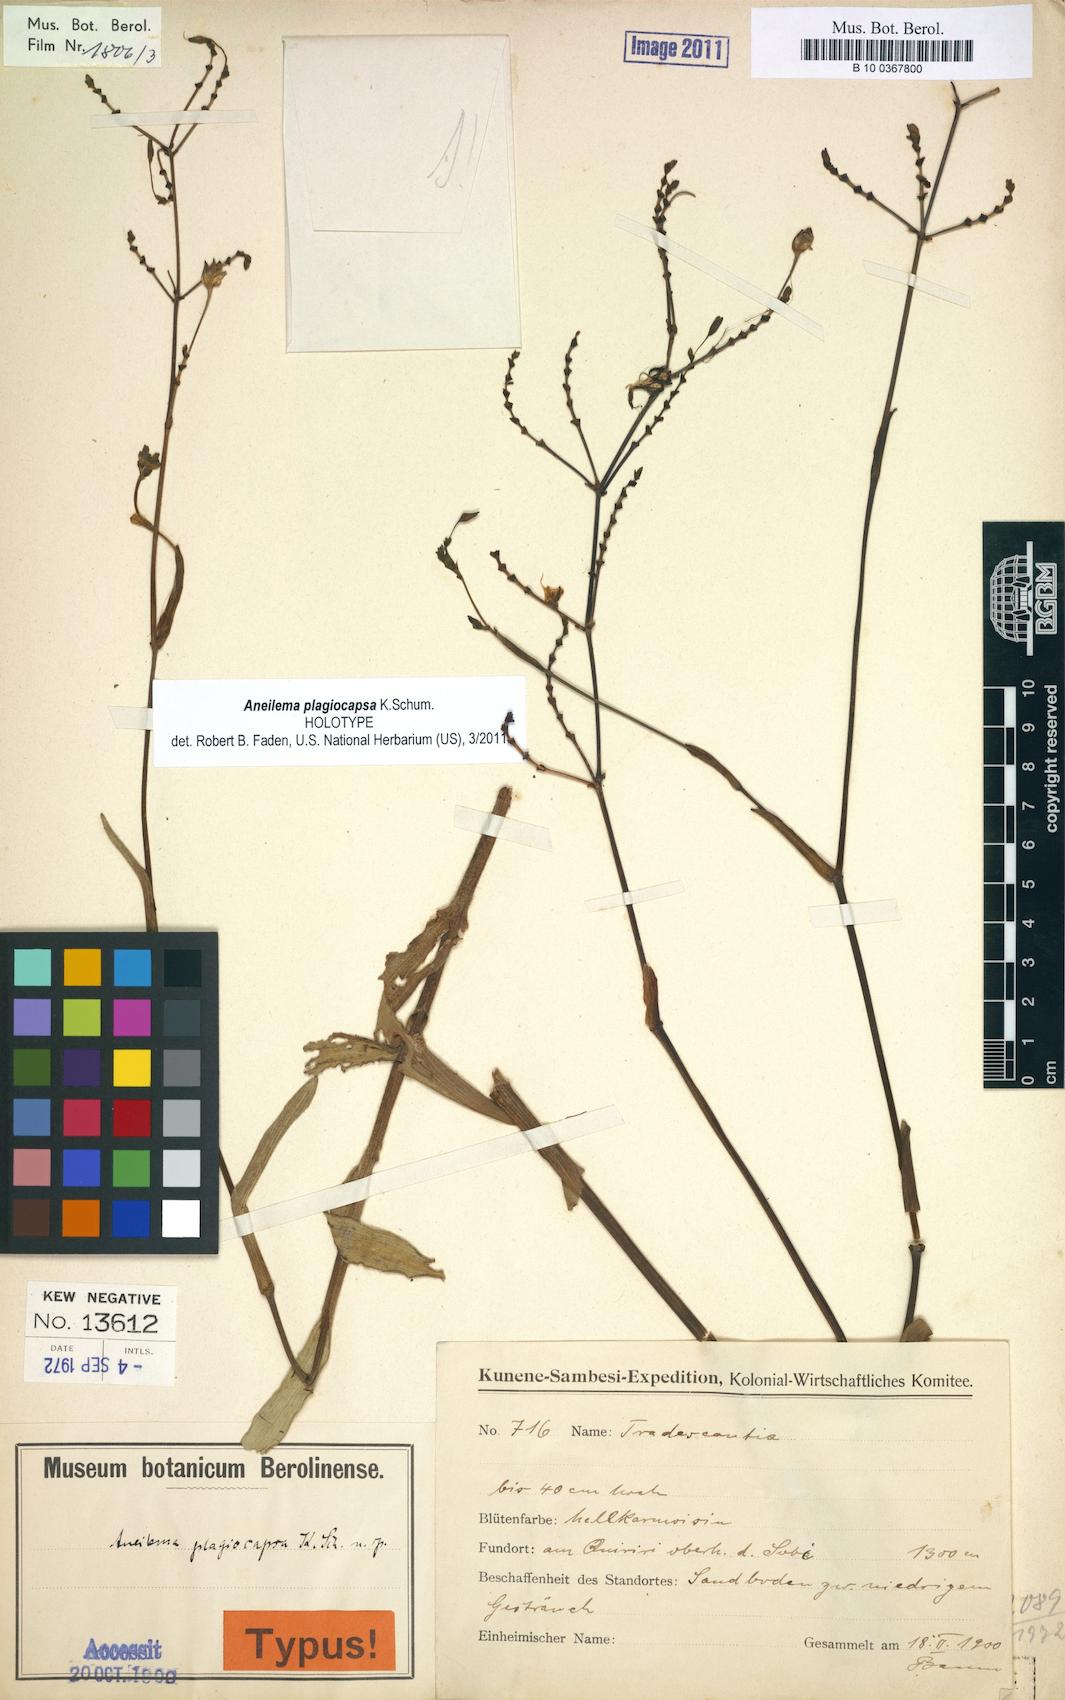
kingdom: Plantae
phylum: Tracheophyta
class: Liliopsida
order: Commelinales
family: Commelinaceae
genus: Aneilema
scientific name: Aneilema plagiocapsa
